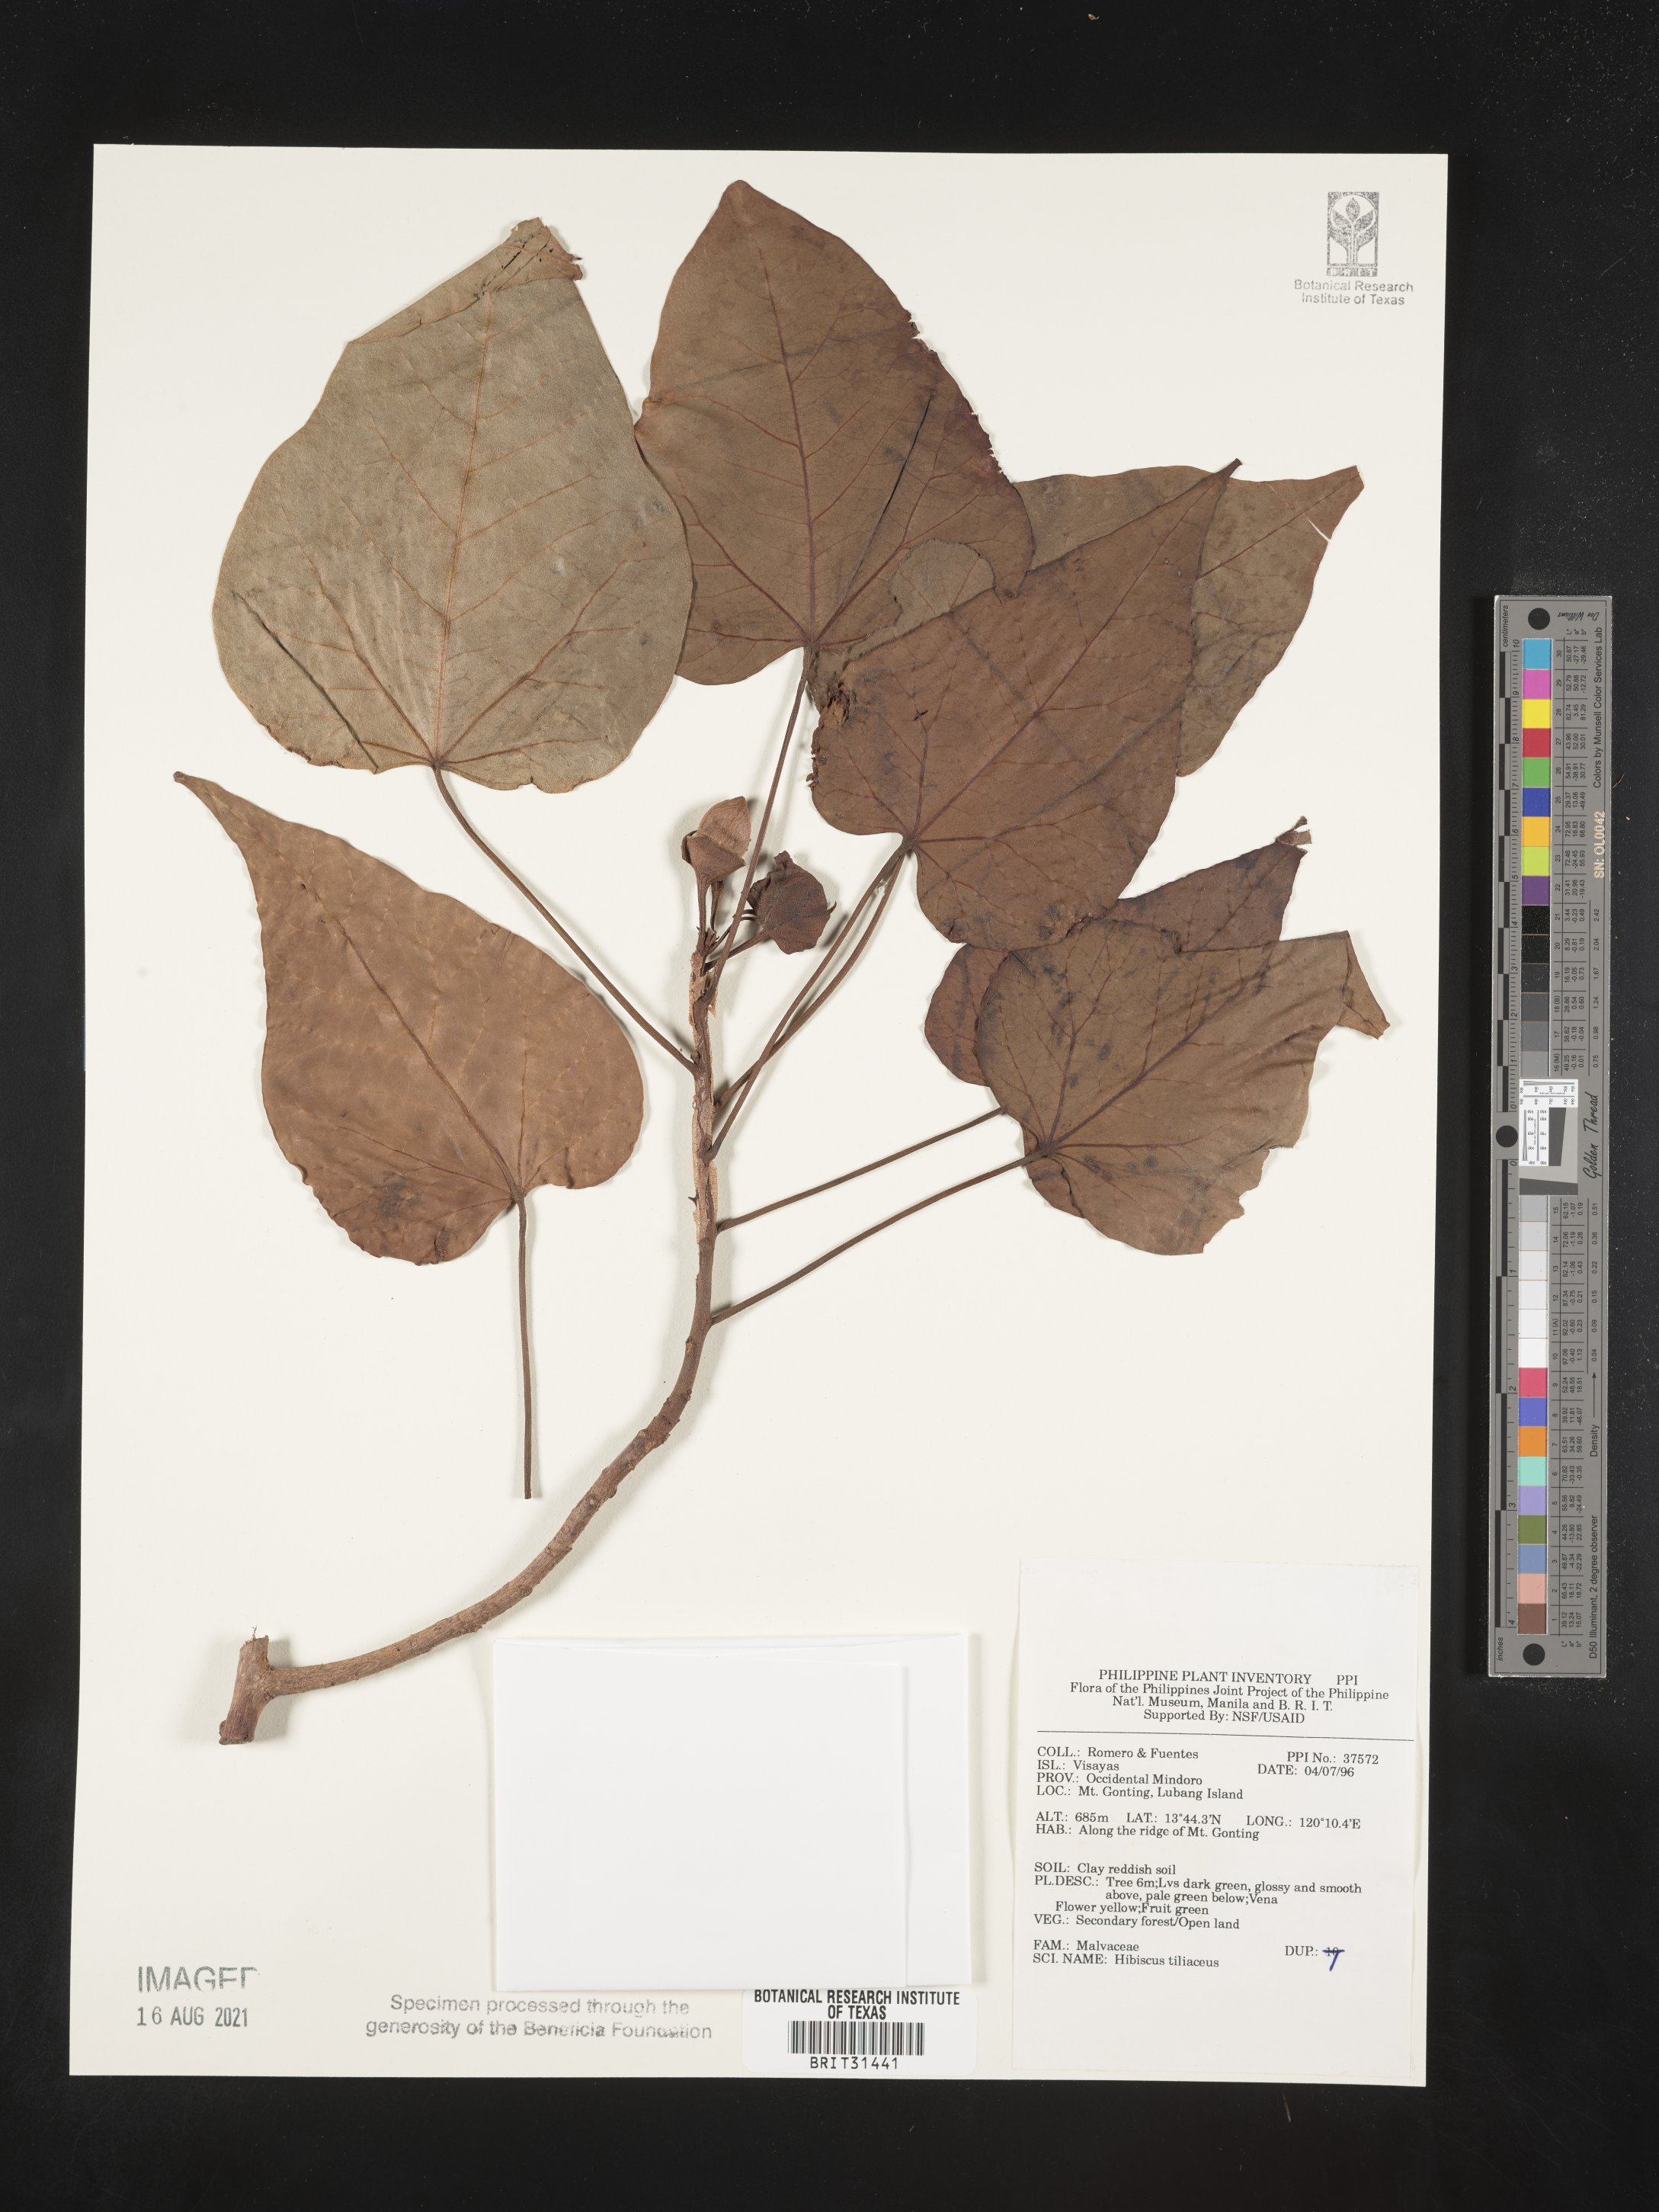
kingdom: Plantae
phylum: Tracheophyta
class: Magnoliopsida
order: Malvales
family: Malvaceae
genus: Talipariti
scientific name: Talipariti tiliaceum
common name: Sea hibiscus
